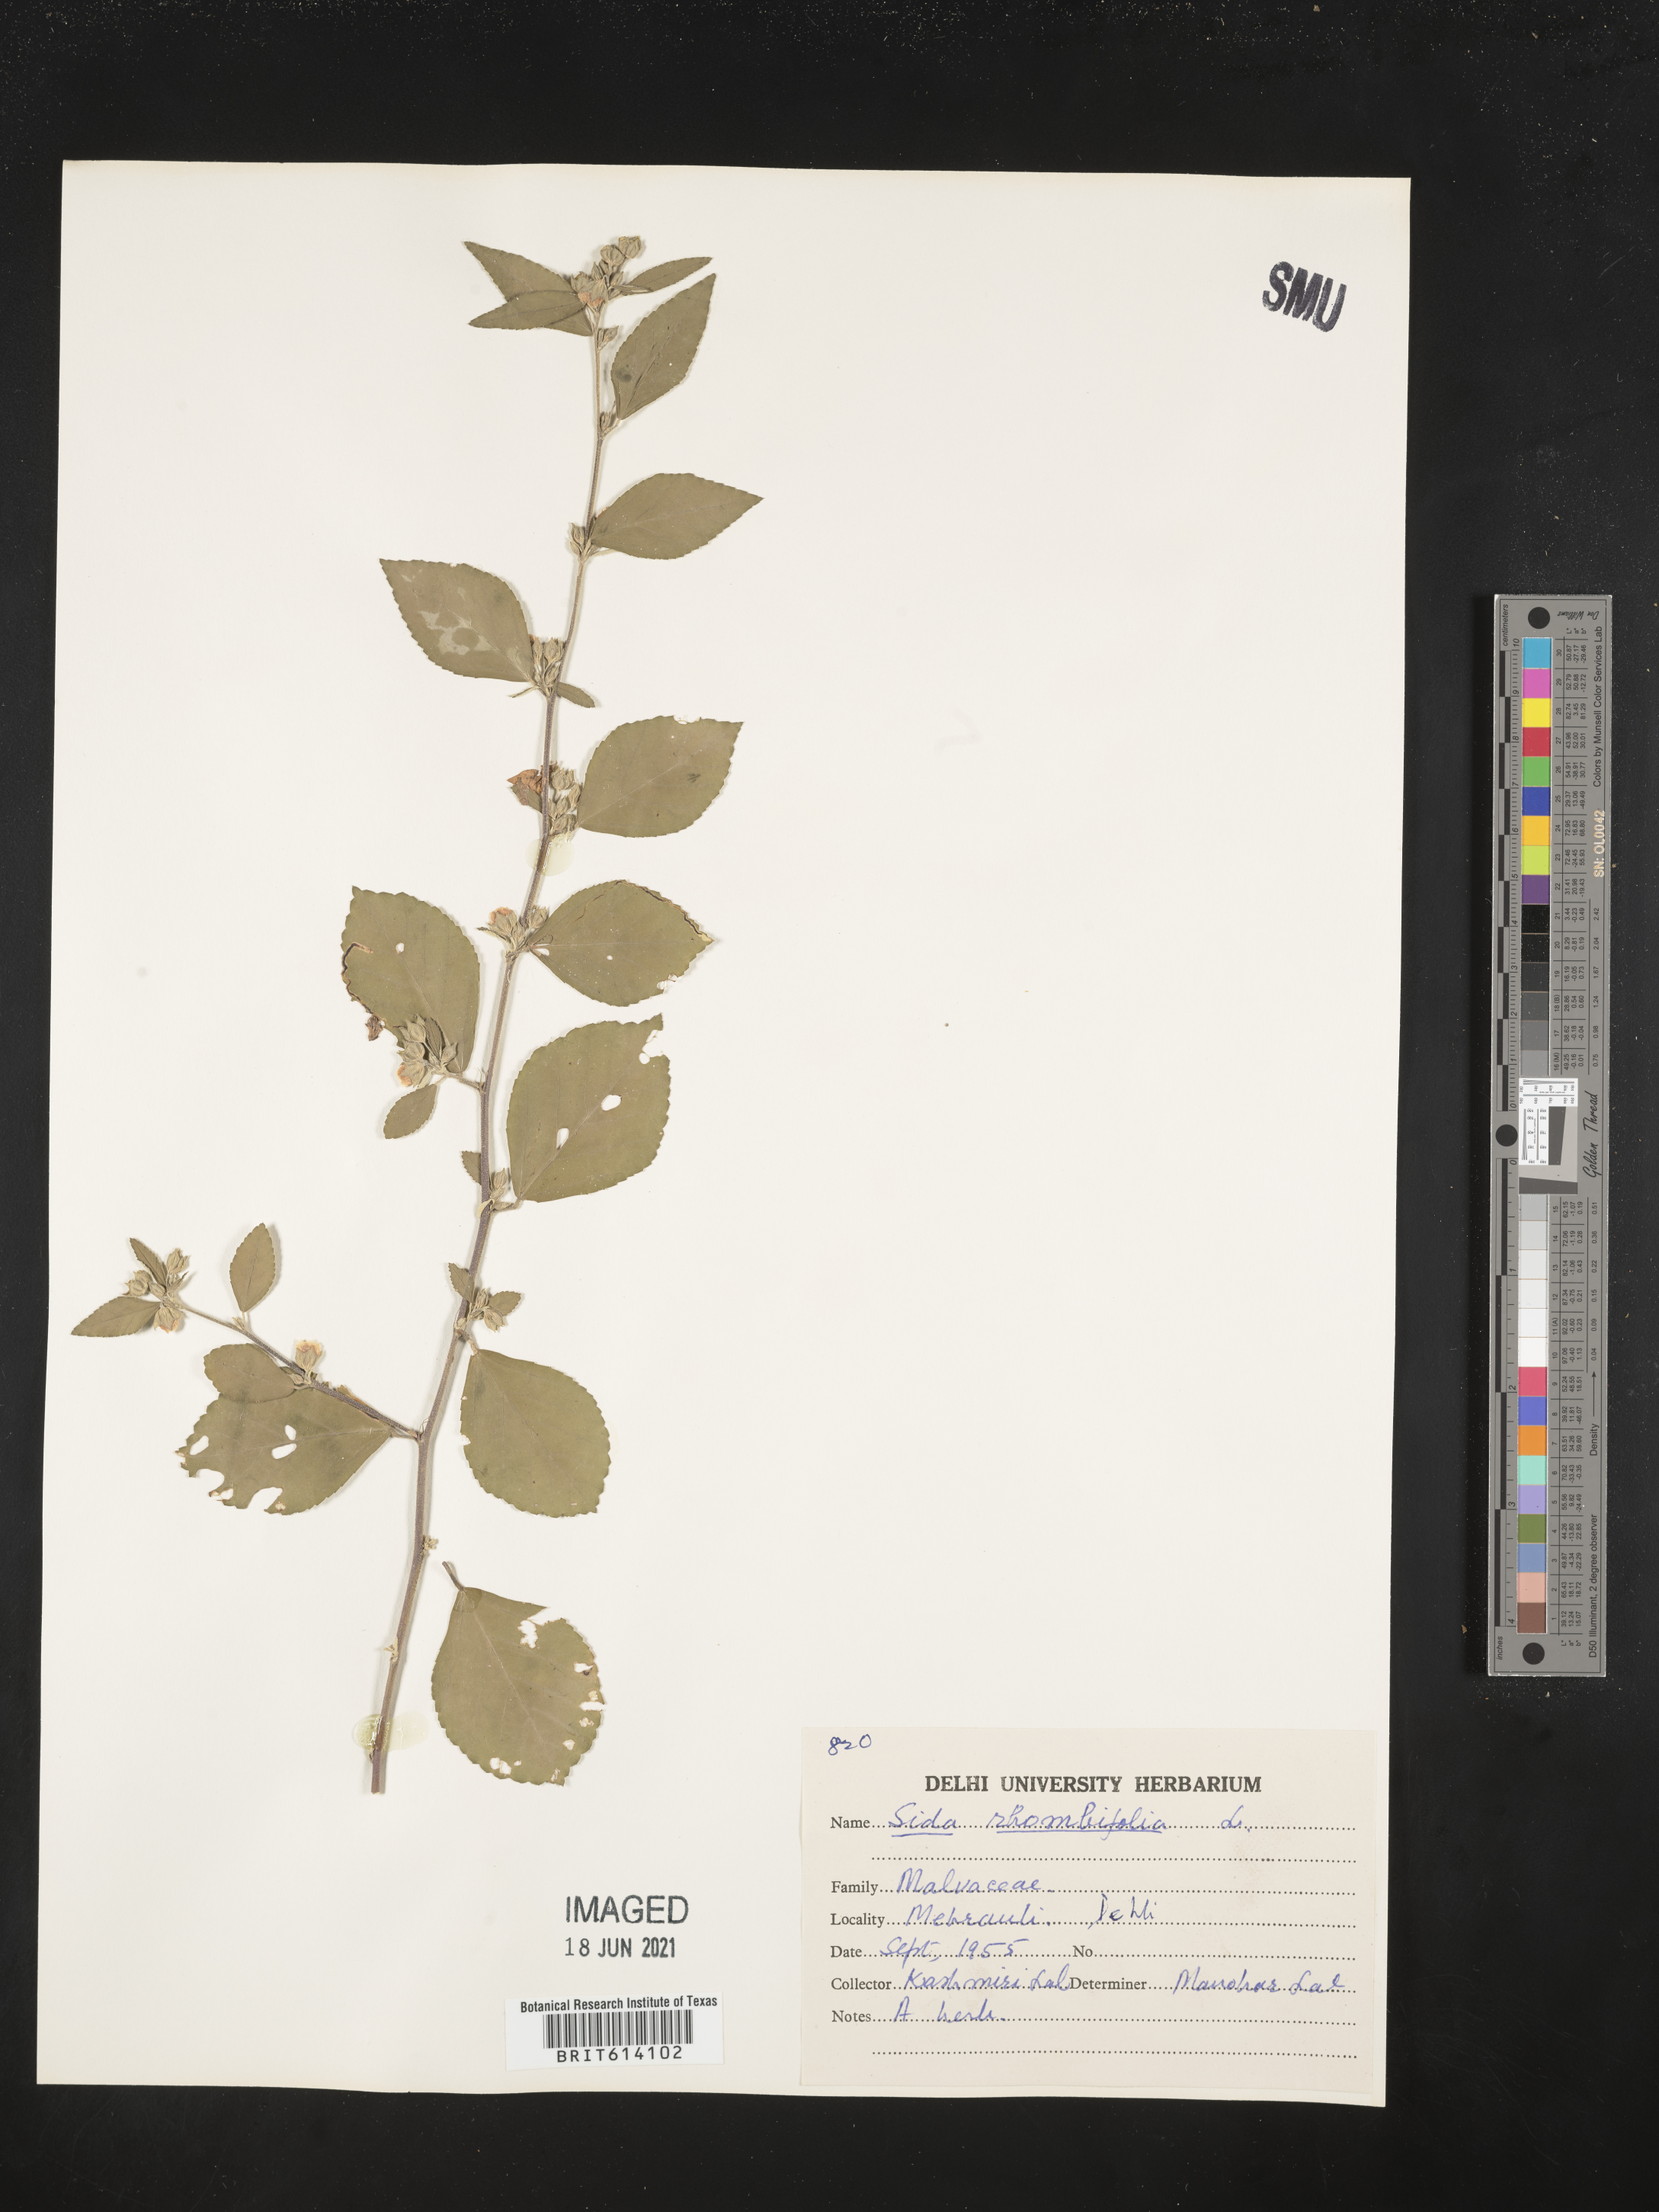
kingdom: Plantae
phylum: Tracheophyta
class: Magnoliopsida
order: Malvales
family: Malvaceae
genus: Sida
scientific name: Sida rhombifolia
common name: Queensland-hemp
